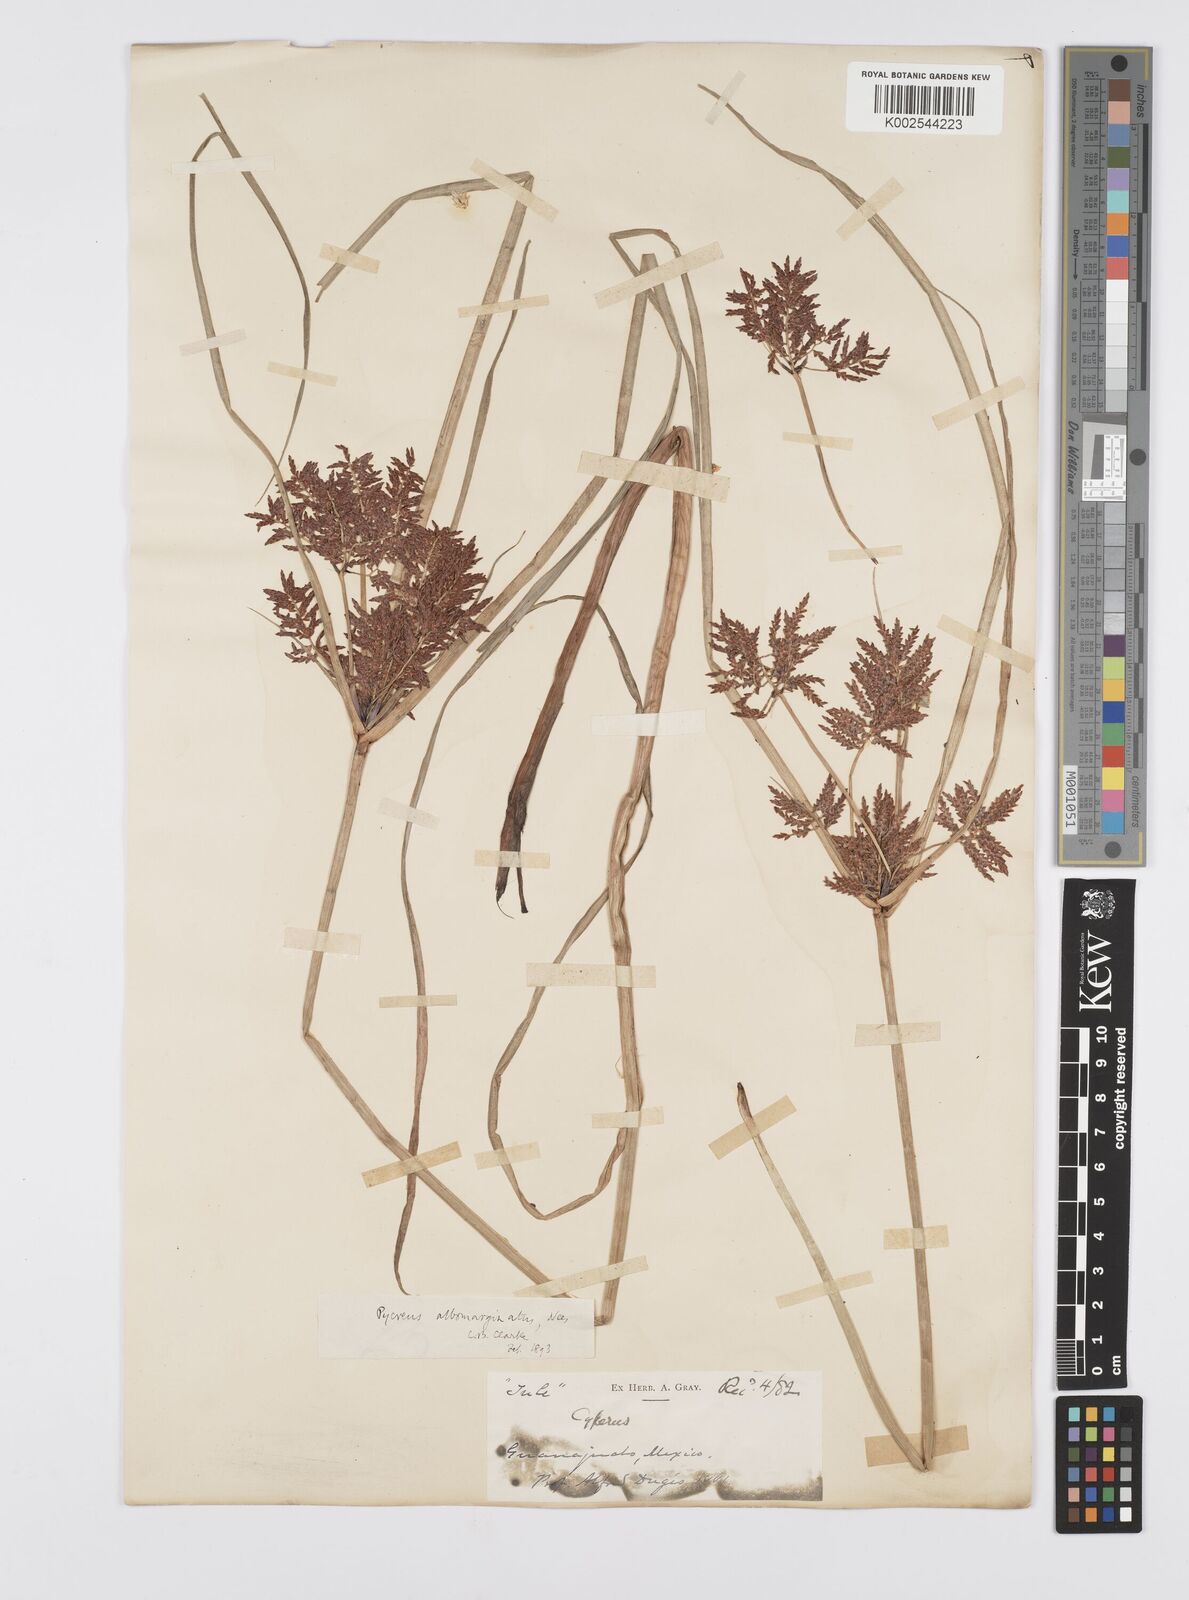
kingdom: Plantae
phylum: Tracheophyta
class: Liliopsida
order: Poales
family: Cyperaceae
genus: Cyperus
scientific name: Cyperus macrostachyos
